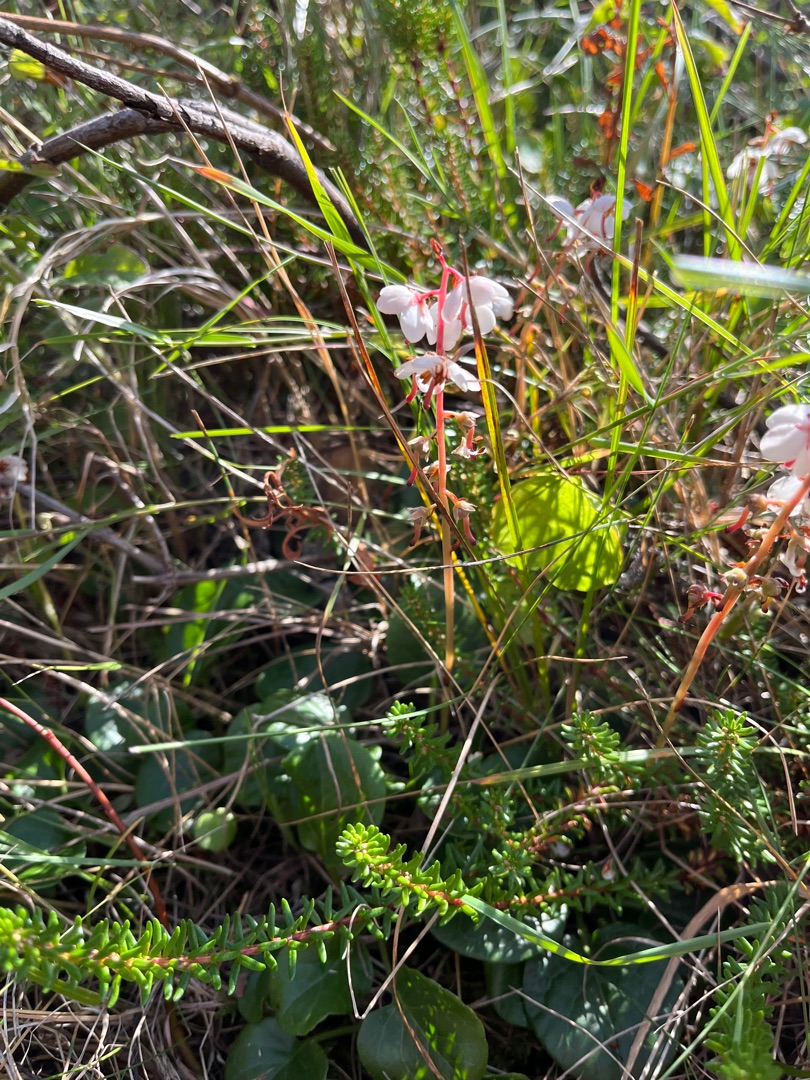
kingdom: Plantae
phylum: Tracheophyta
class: Magnoliopsida
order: Ericales
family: Ericaceae
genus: Pyrola
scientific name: Pyrola rotundifolia
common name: Mose-vintergrøn (underart)
